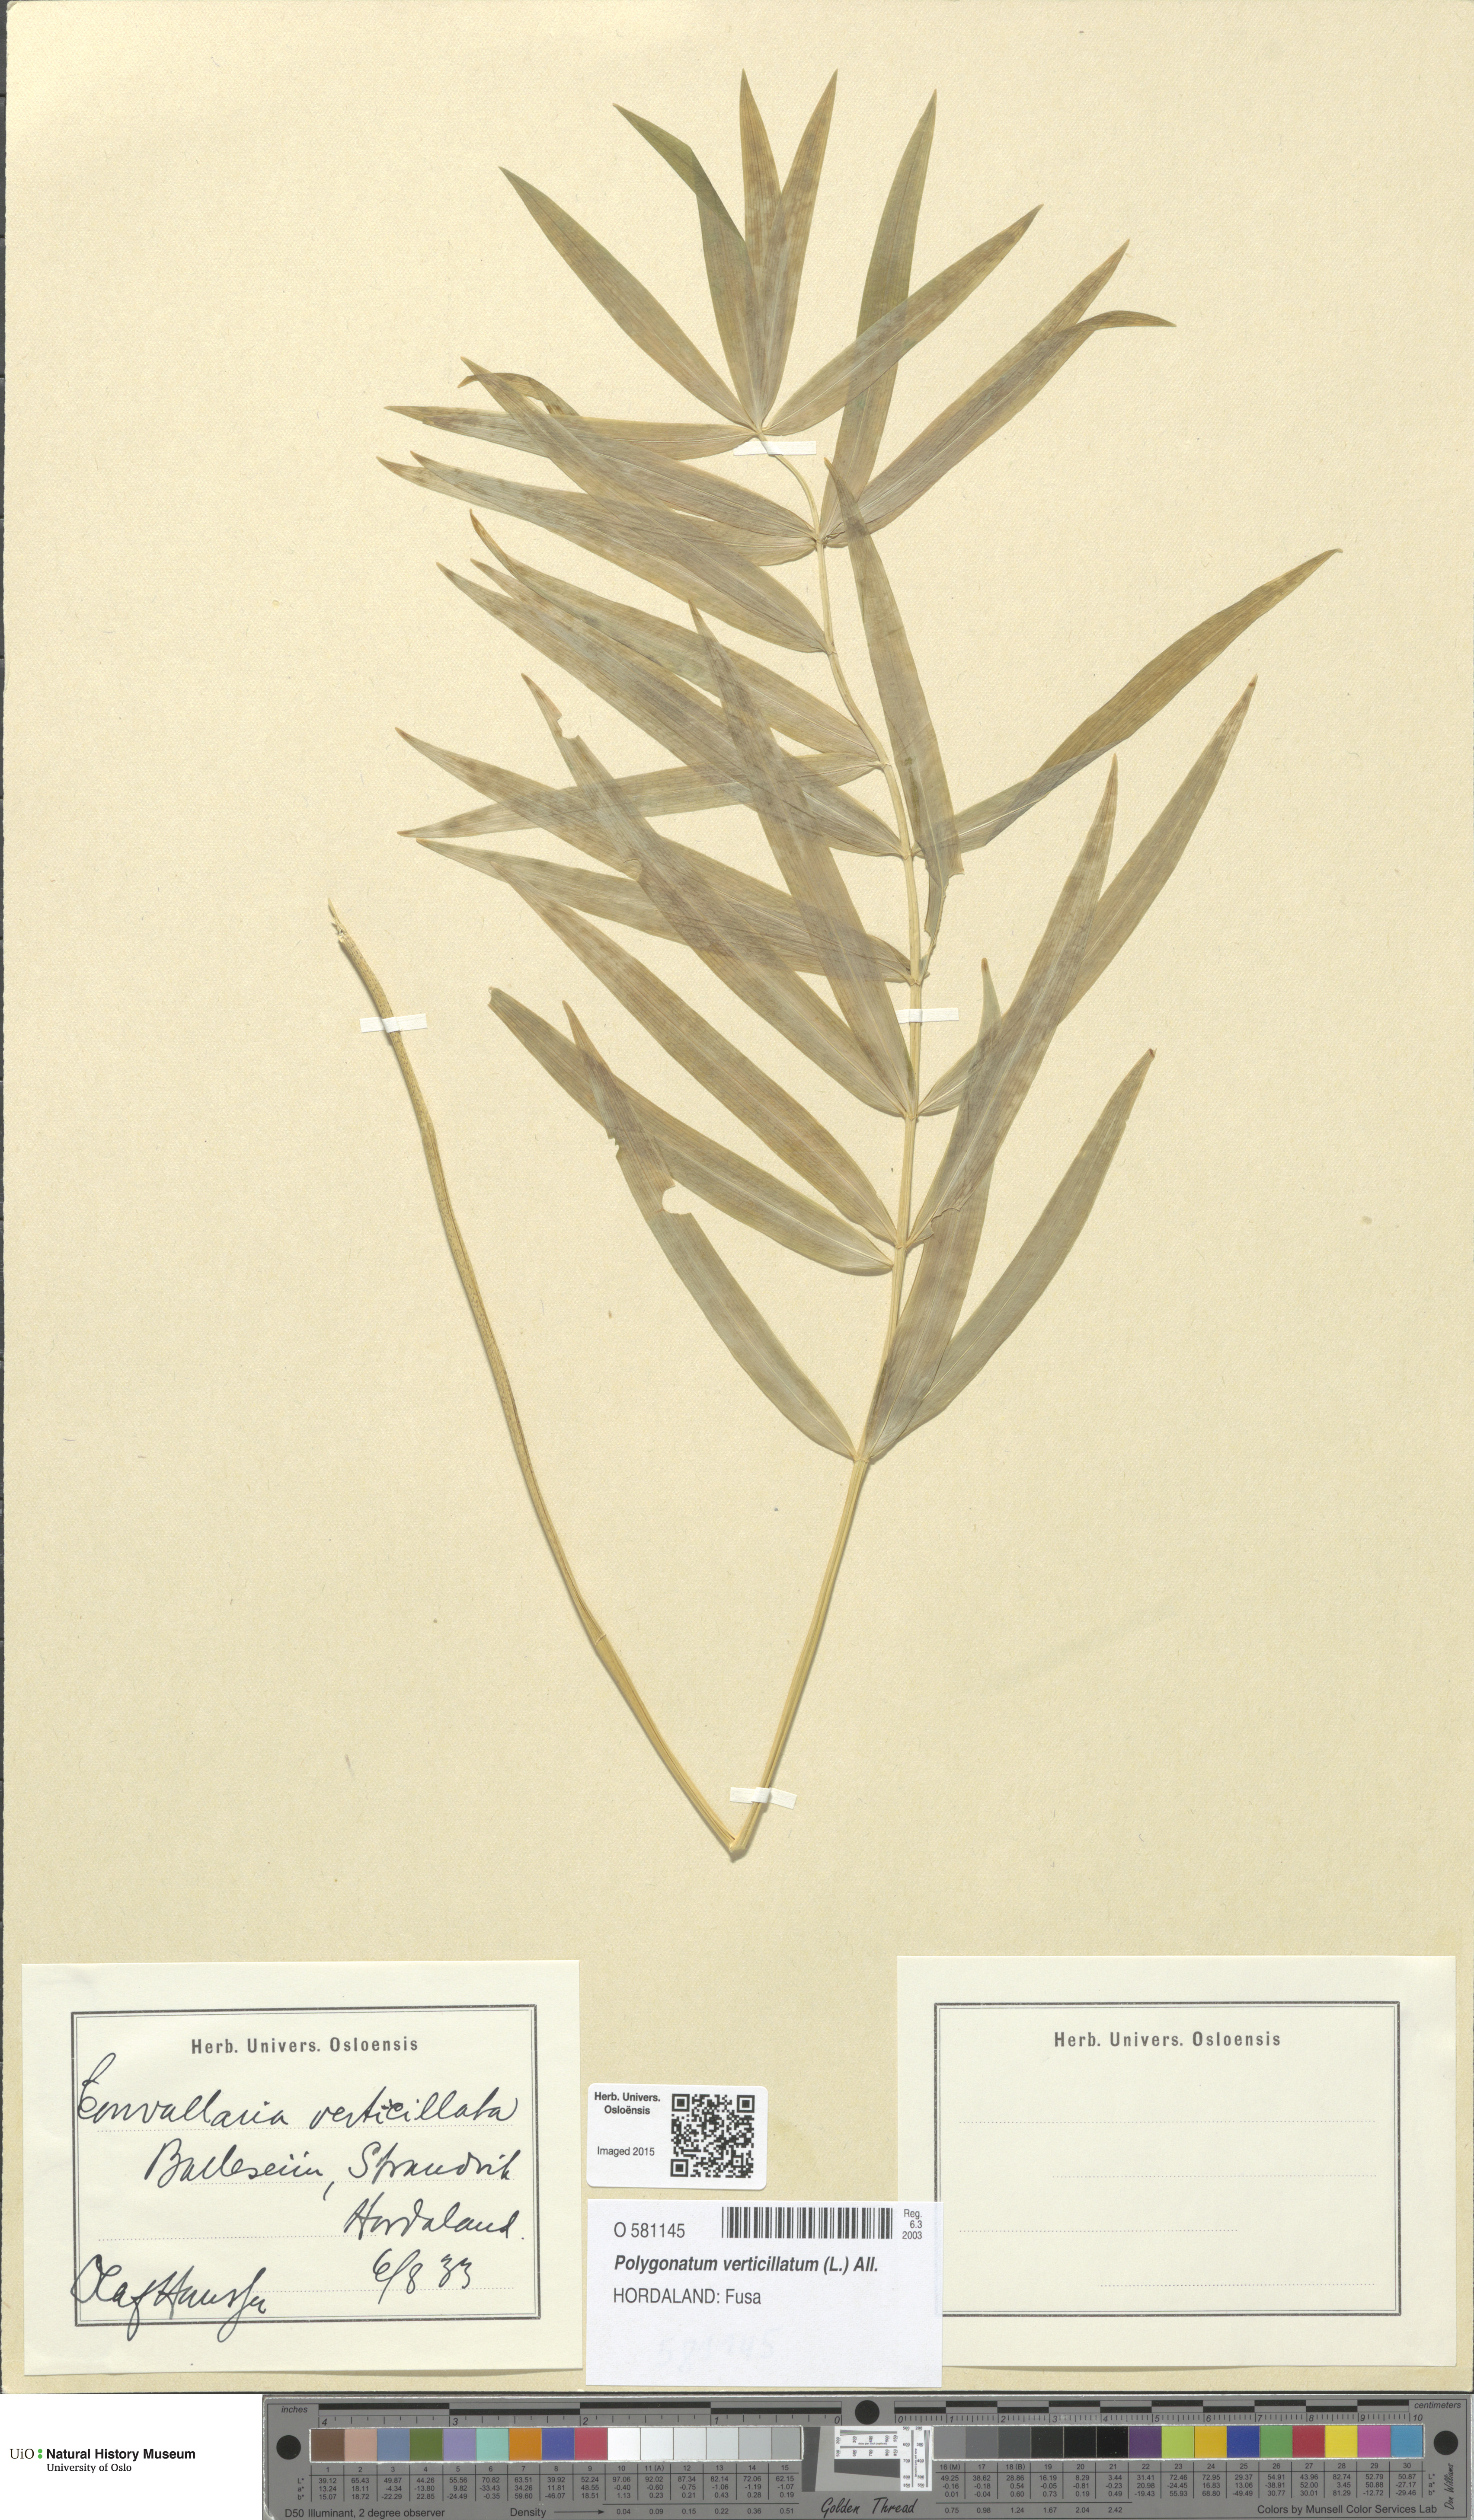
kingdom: Plantae
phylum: Tracheophyta
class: Liliopsida
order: Asparagales
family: Asparagaceae
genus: Polygonatum
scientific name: Polygonatum verticillatum
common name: Whorled solomon's-seal
